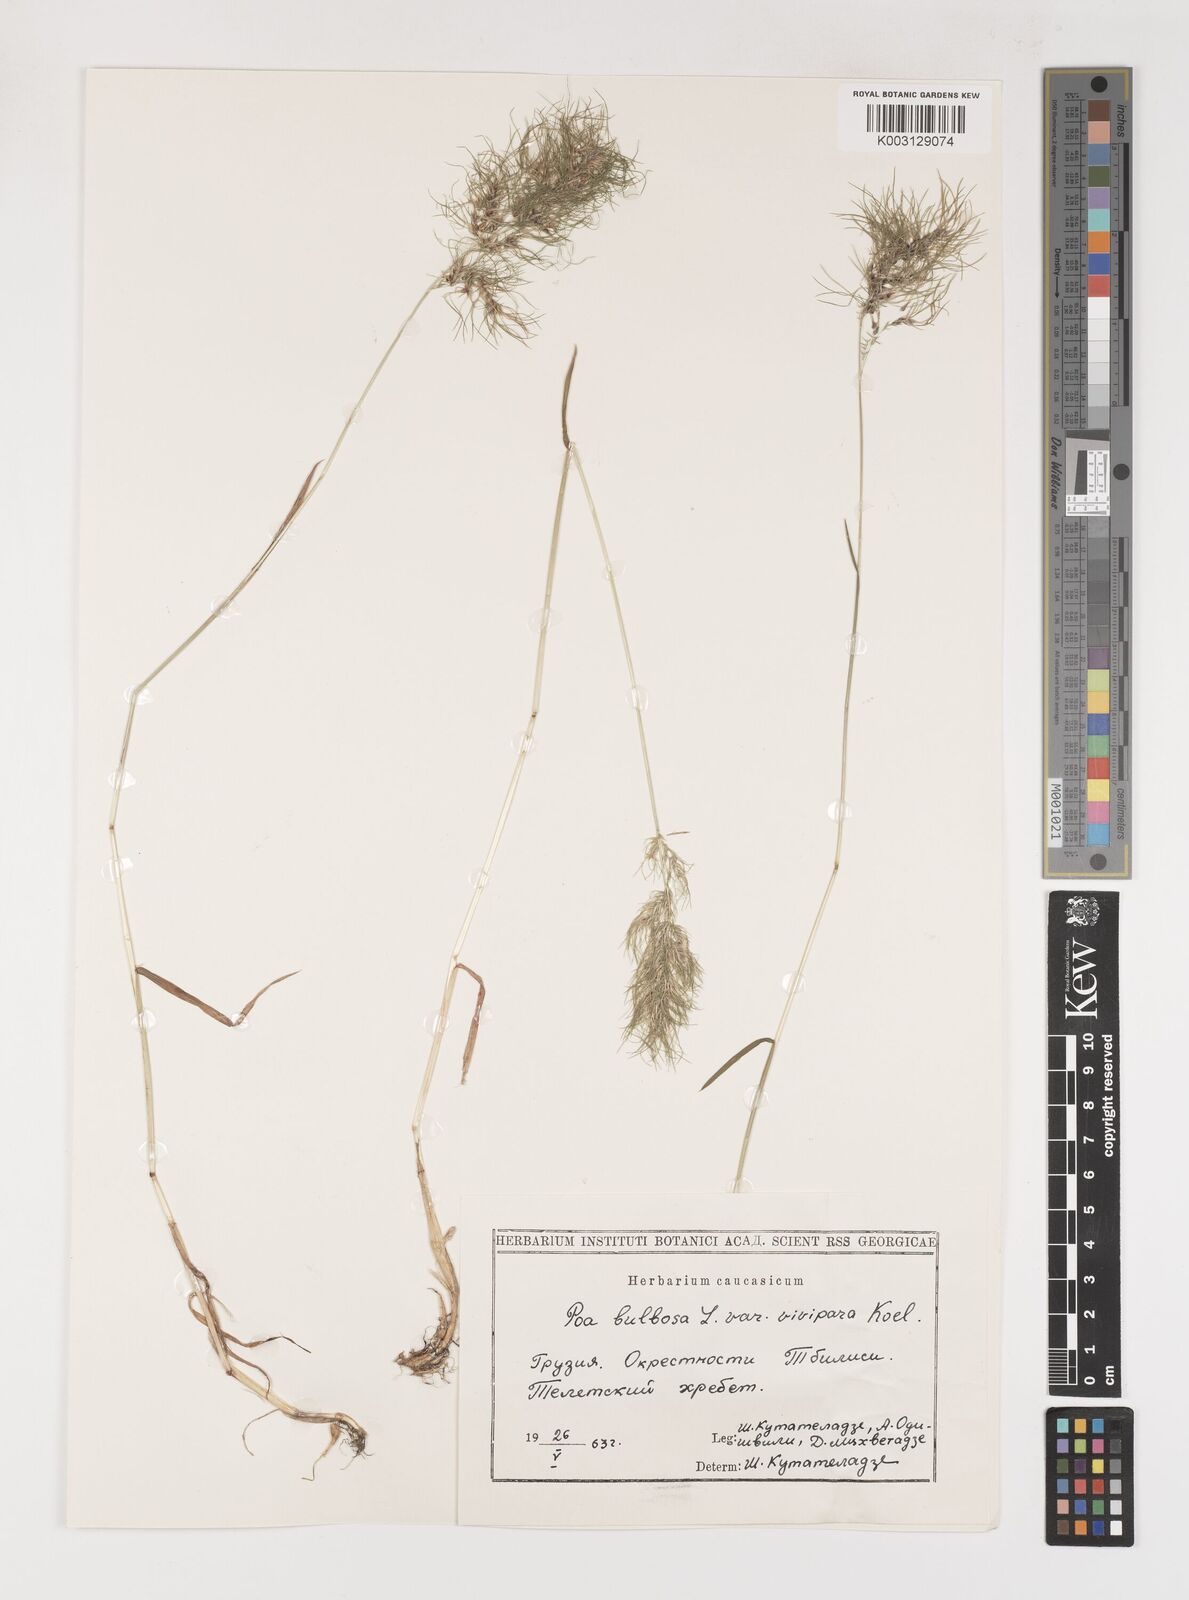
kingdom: Plantae
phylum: Tracheophyta
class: Liliopsida
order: Poales
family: Poaceae
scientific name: Poaceae
